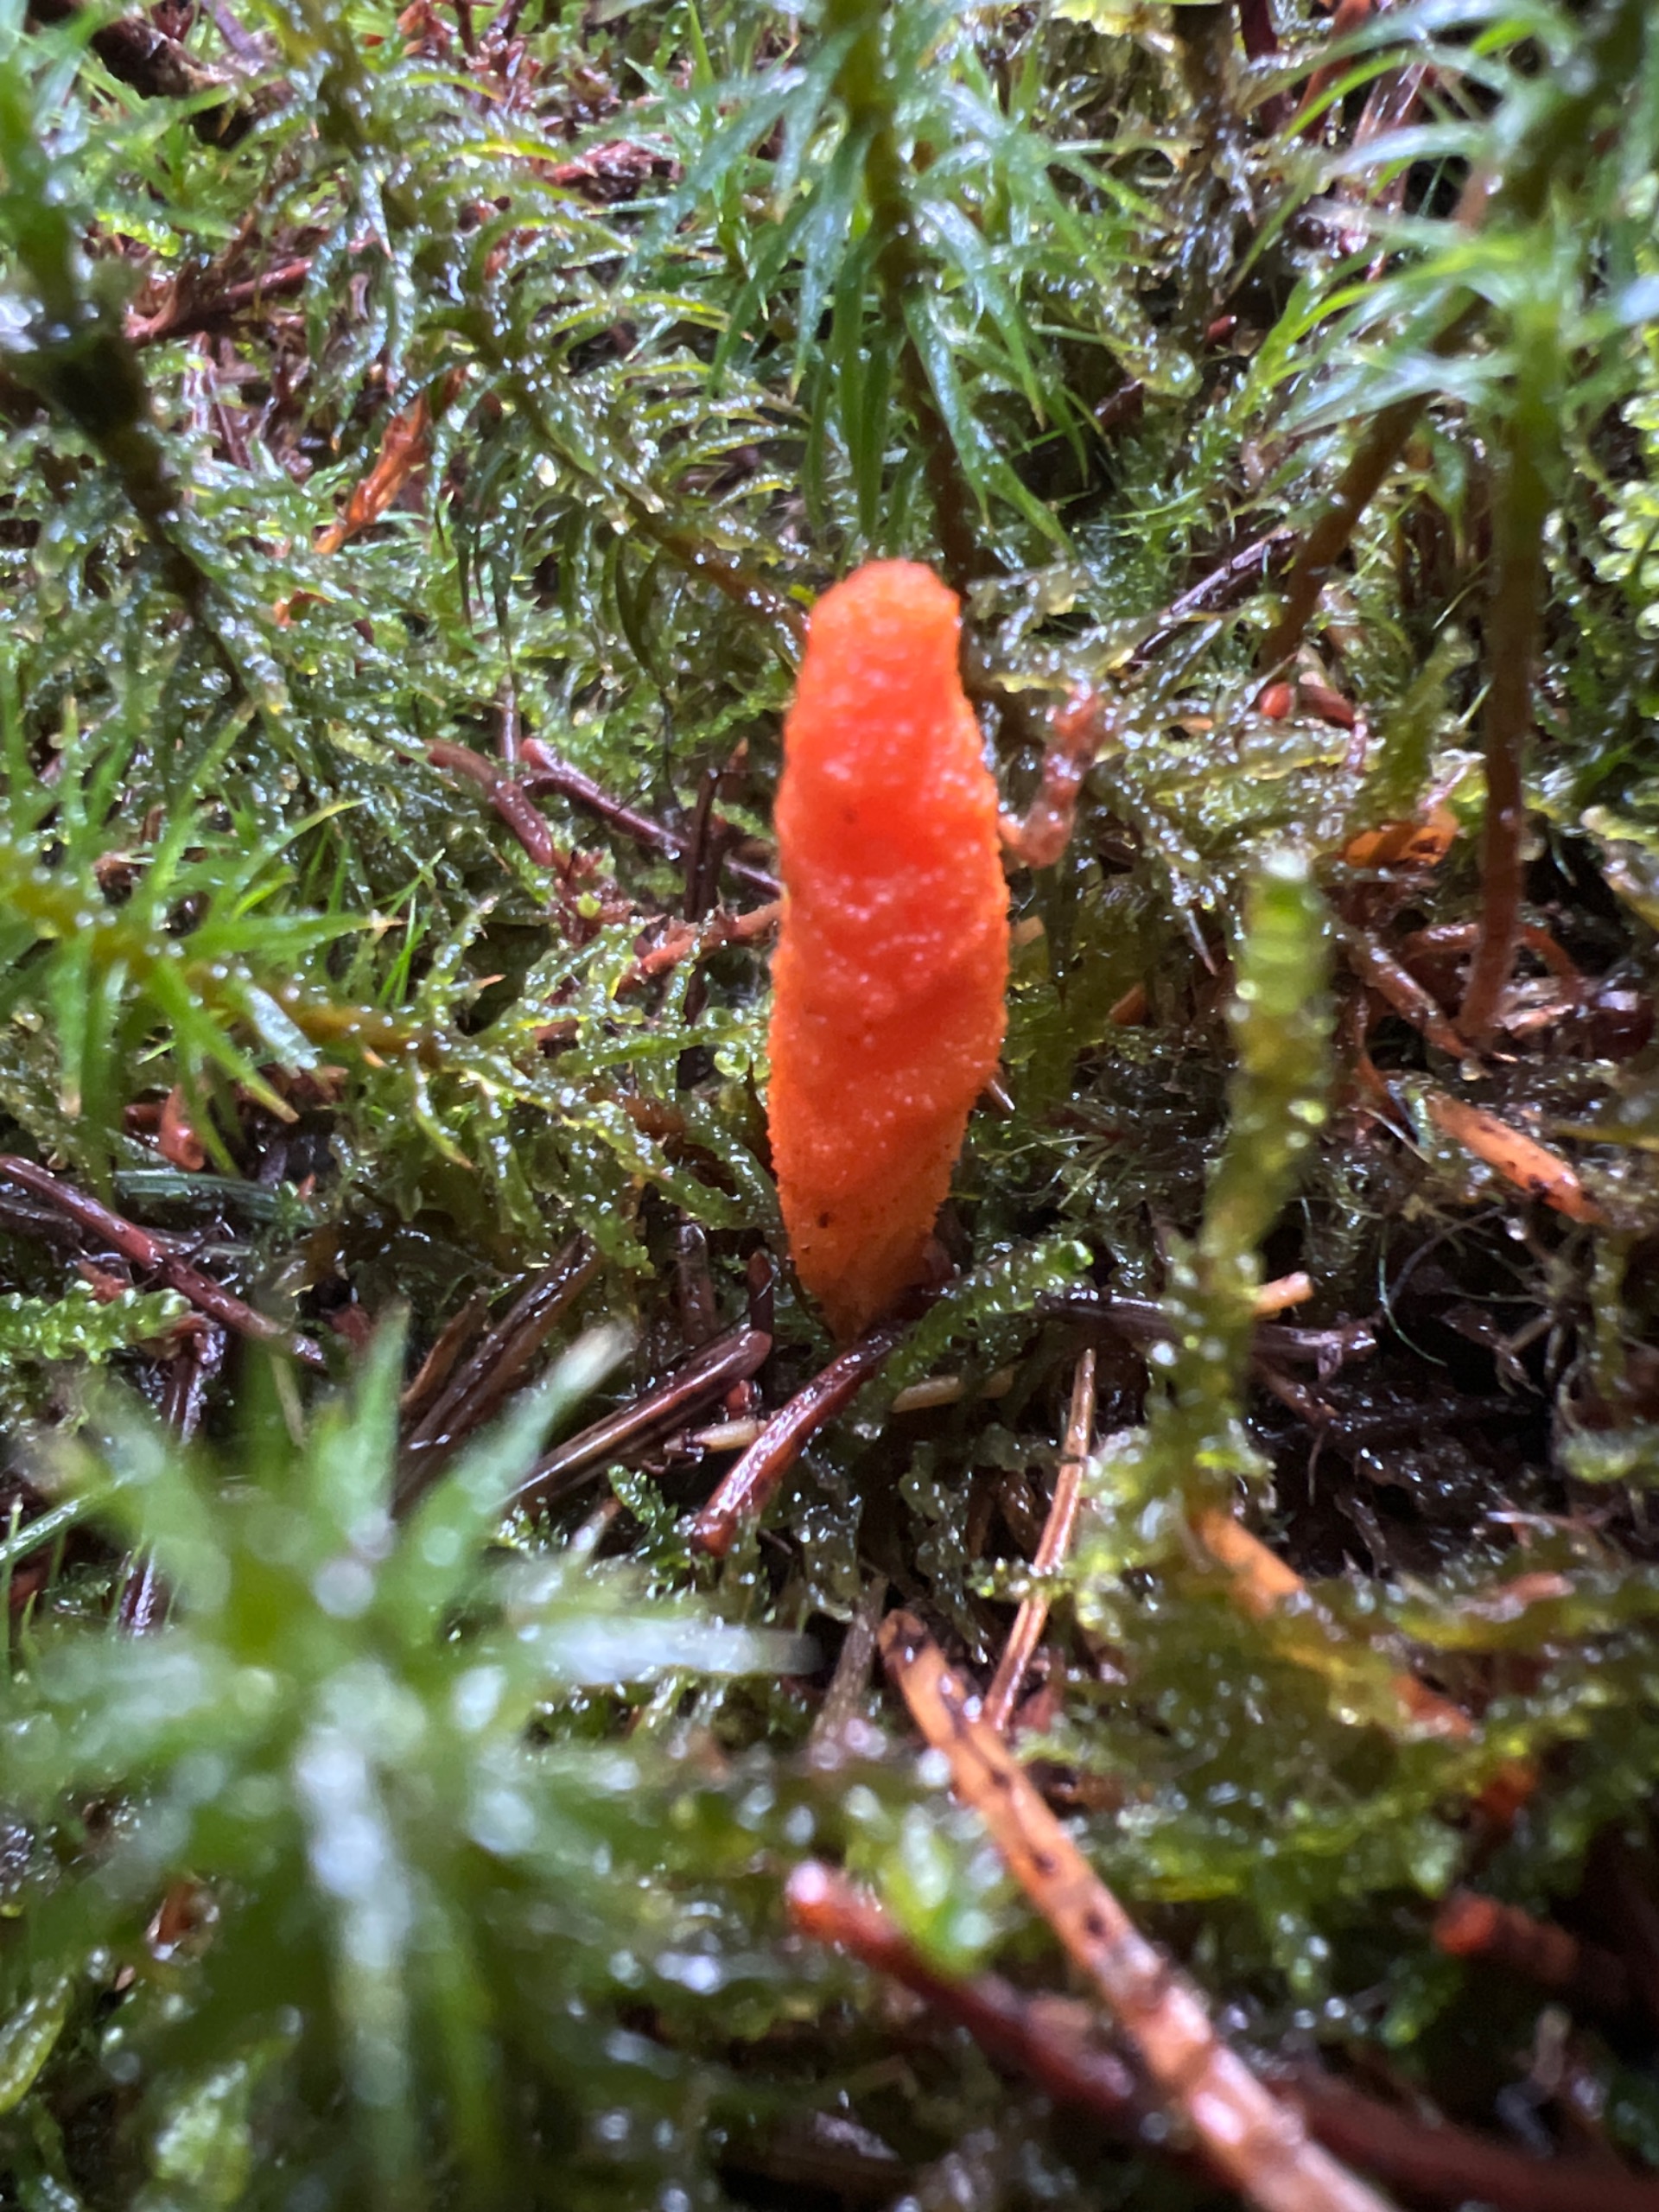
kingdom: Fungi
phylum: Ascomycota
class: Sordariomycetes
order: Hypocreales
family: Cordycipitaceae
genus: Cordyceps
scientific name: Cordyceps militaris
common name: Puppe-snyltekølle
